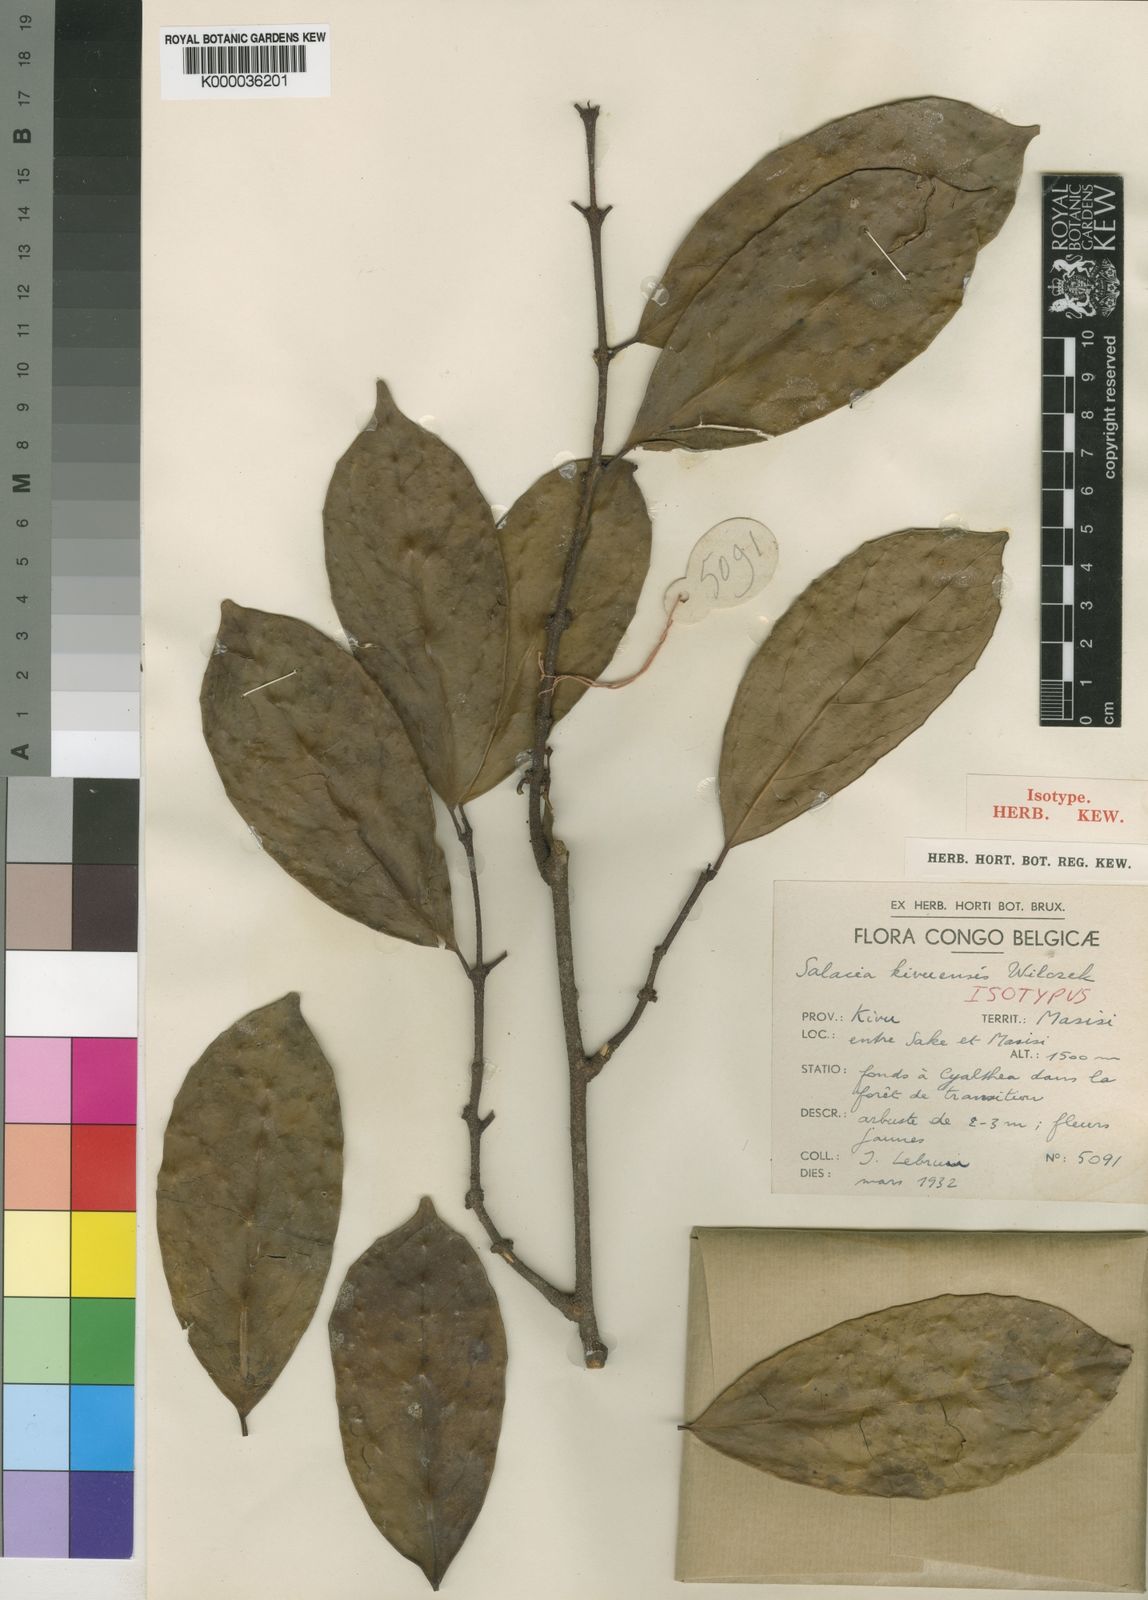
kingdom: Plantae
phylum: Tracheophyta
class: Magnoliopsida
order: Celastrales
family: Celastraceae
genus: Salacia
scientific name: Salacia kivuensis
